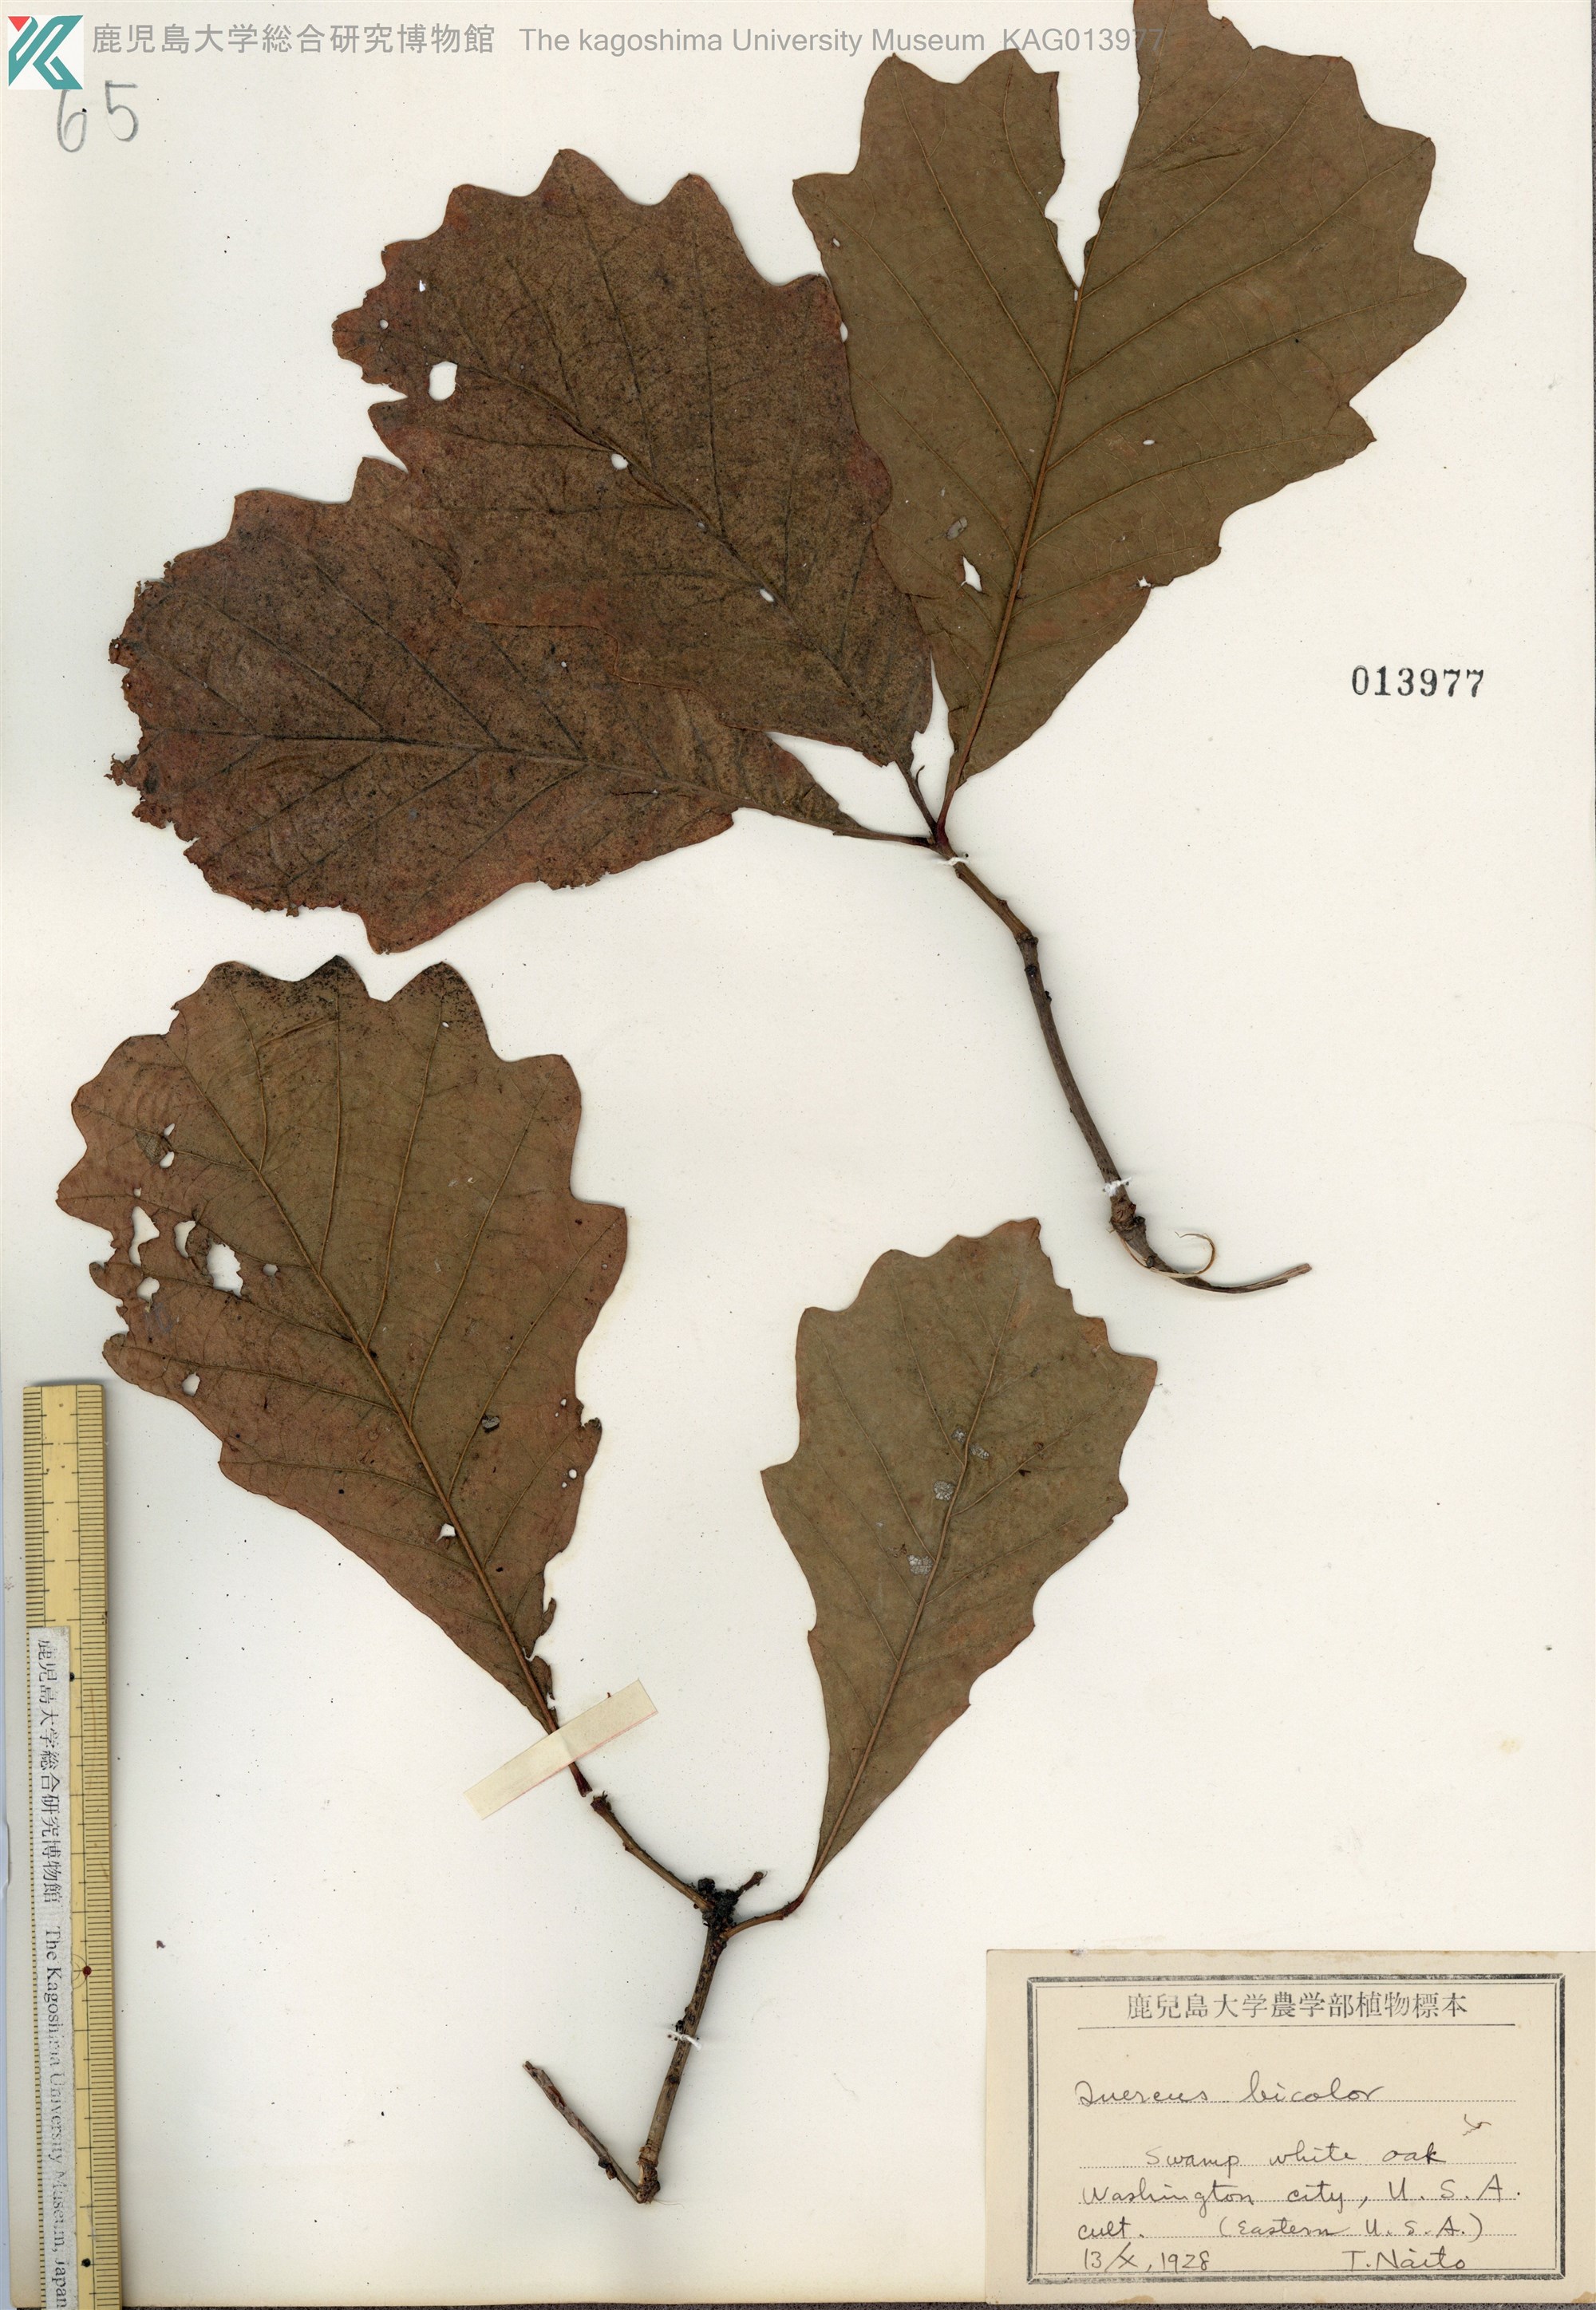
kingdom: Plantae
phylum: Tracheophyta
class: Magnoliopsida
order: Fagales
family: Fagaceae
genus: Quercus
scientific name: Quercus lyrata
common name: Overcup oak
